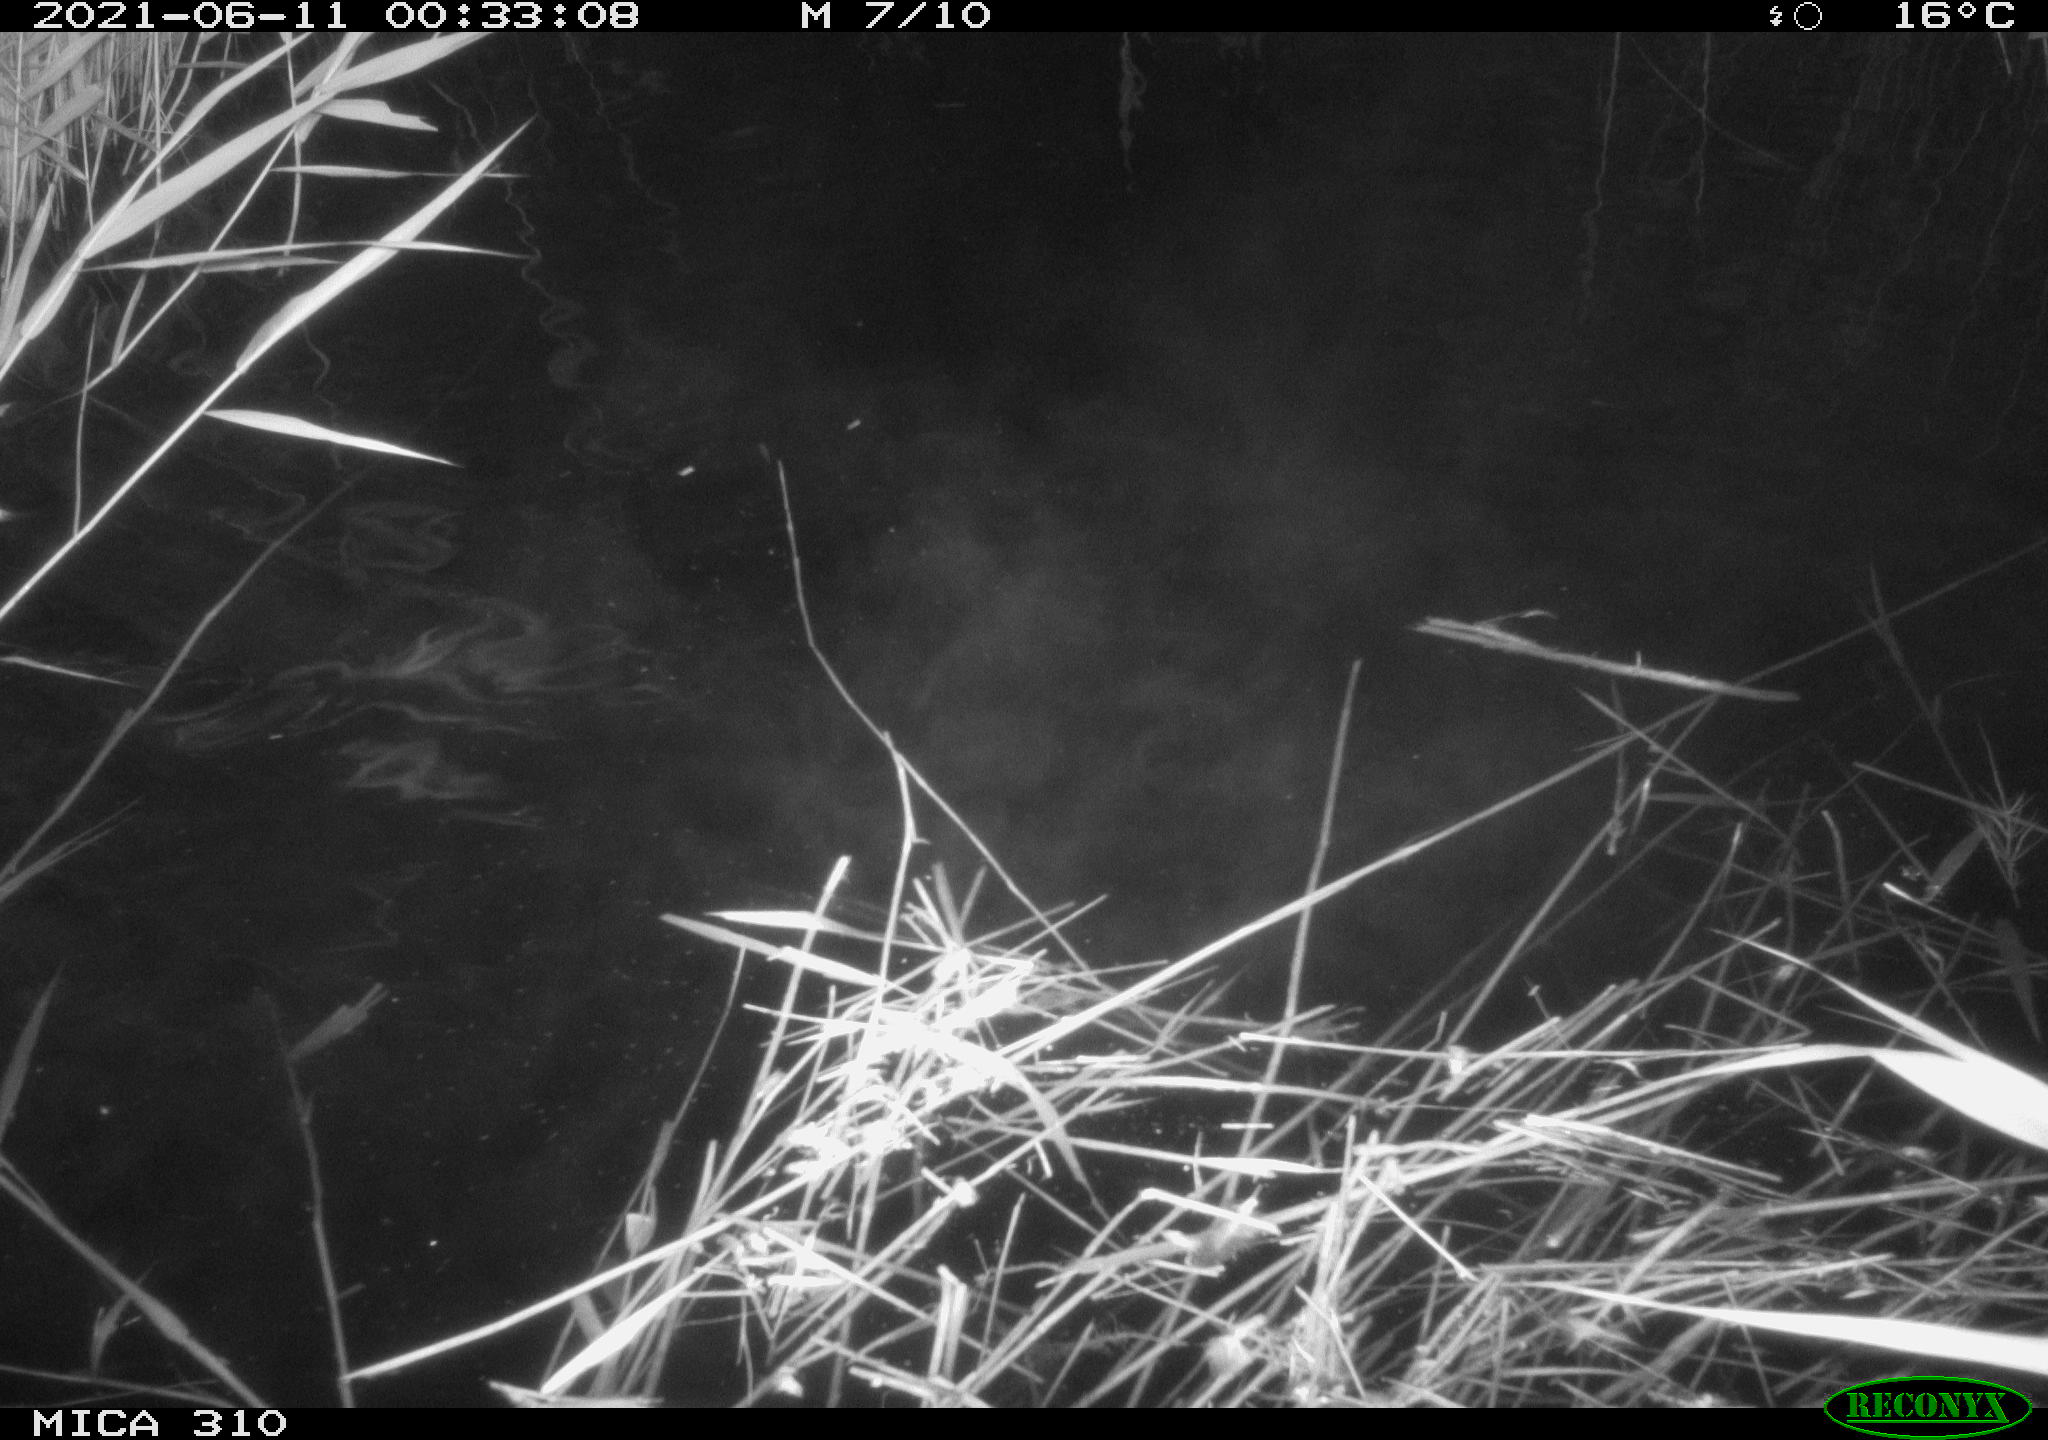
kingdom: Animalia
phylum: Chordata
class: Mammalia
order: Rodentia
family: Cricetidae
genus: Ondatra
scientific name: Ondatra zibethicus
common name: Muskrat
